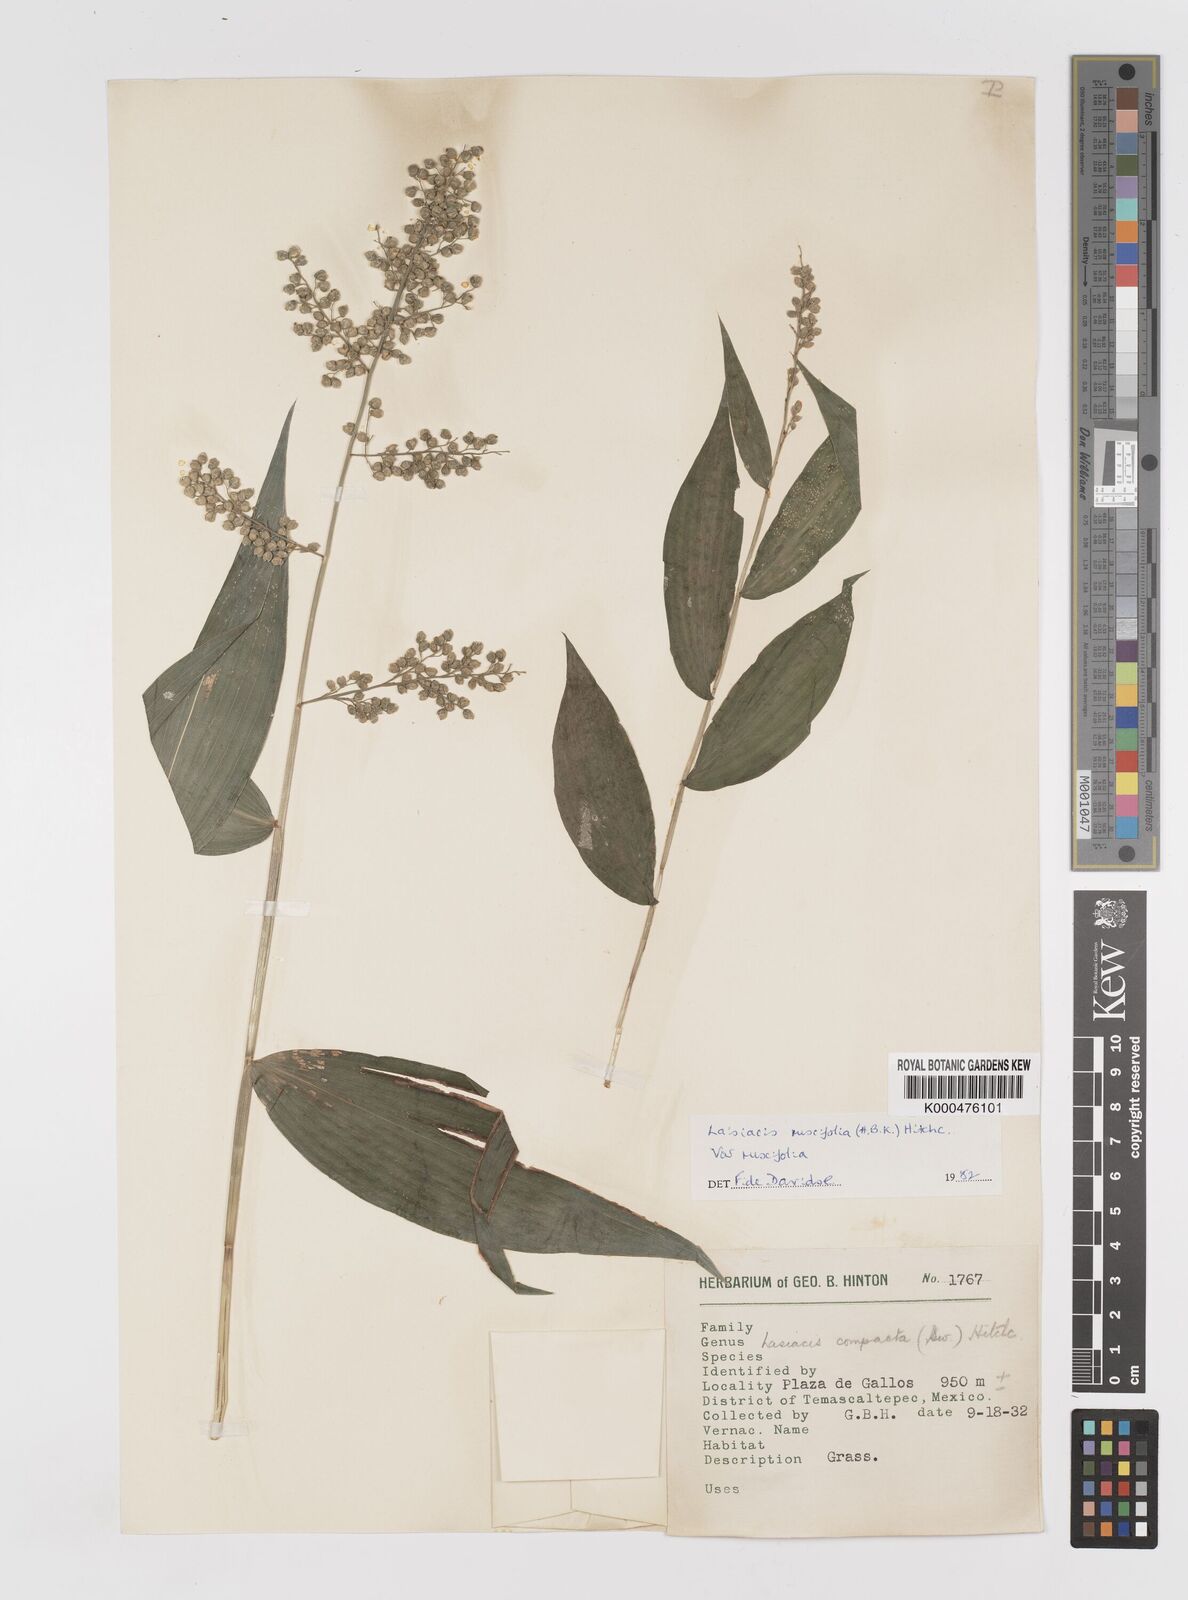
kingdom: Plantae
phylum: Tracheophyta
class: Liliopsida
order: Poales
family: Poaceae
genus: Lasiacis
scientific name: Lasiacis ruscifolia
